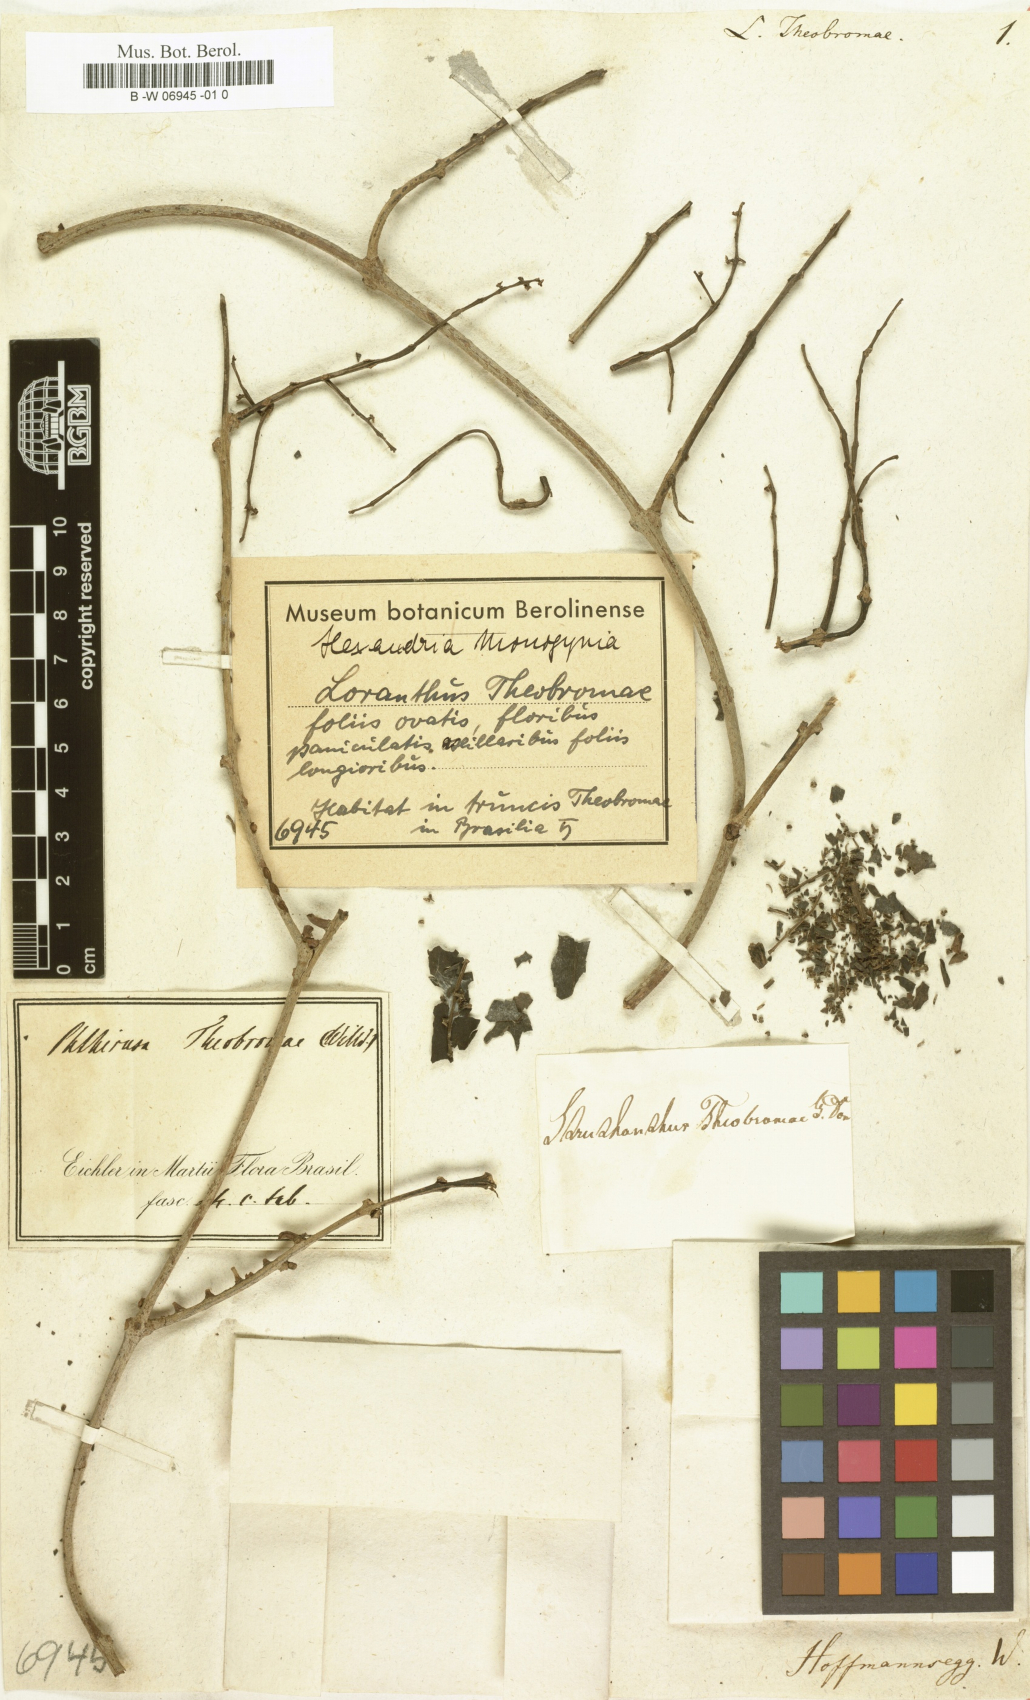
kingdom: Plantae
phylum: Tracheophyta
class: Magnoliopsida
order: Santalales
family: Loranthaceae
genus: Passovia
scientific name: Passovia pedunculata
